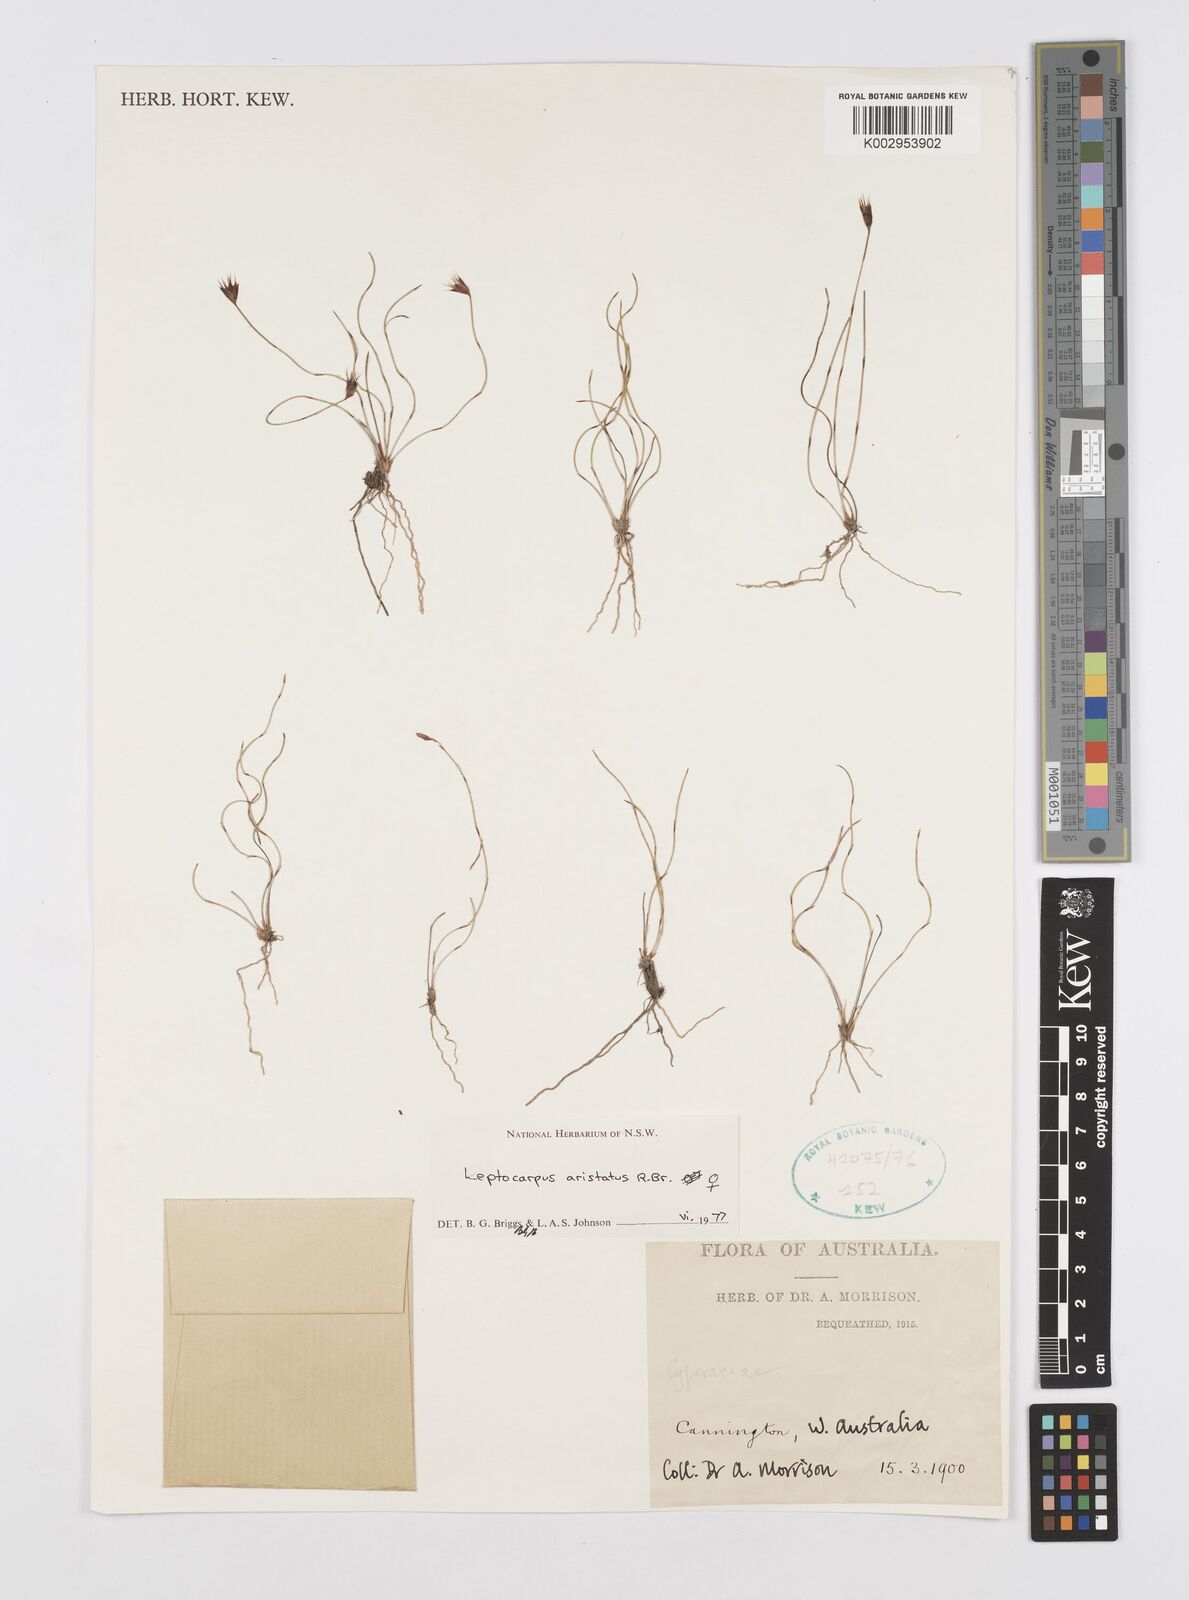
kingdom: Plantae
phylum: Tracheophyta
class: Liliopsida
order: Poales
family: Restionaceae
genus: Chaetanthus
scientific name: Chaetanthus aristatus
